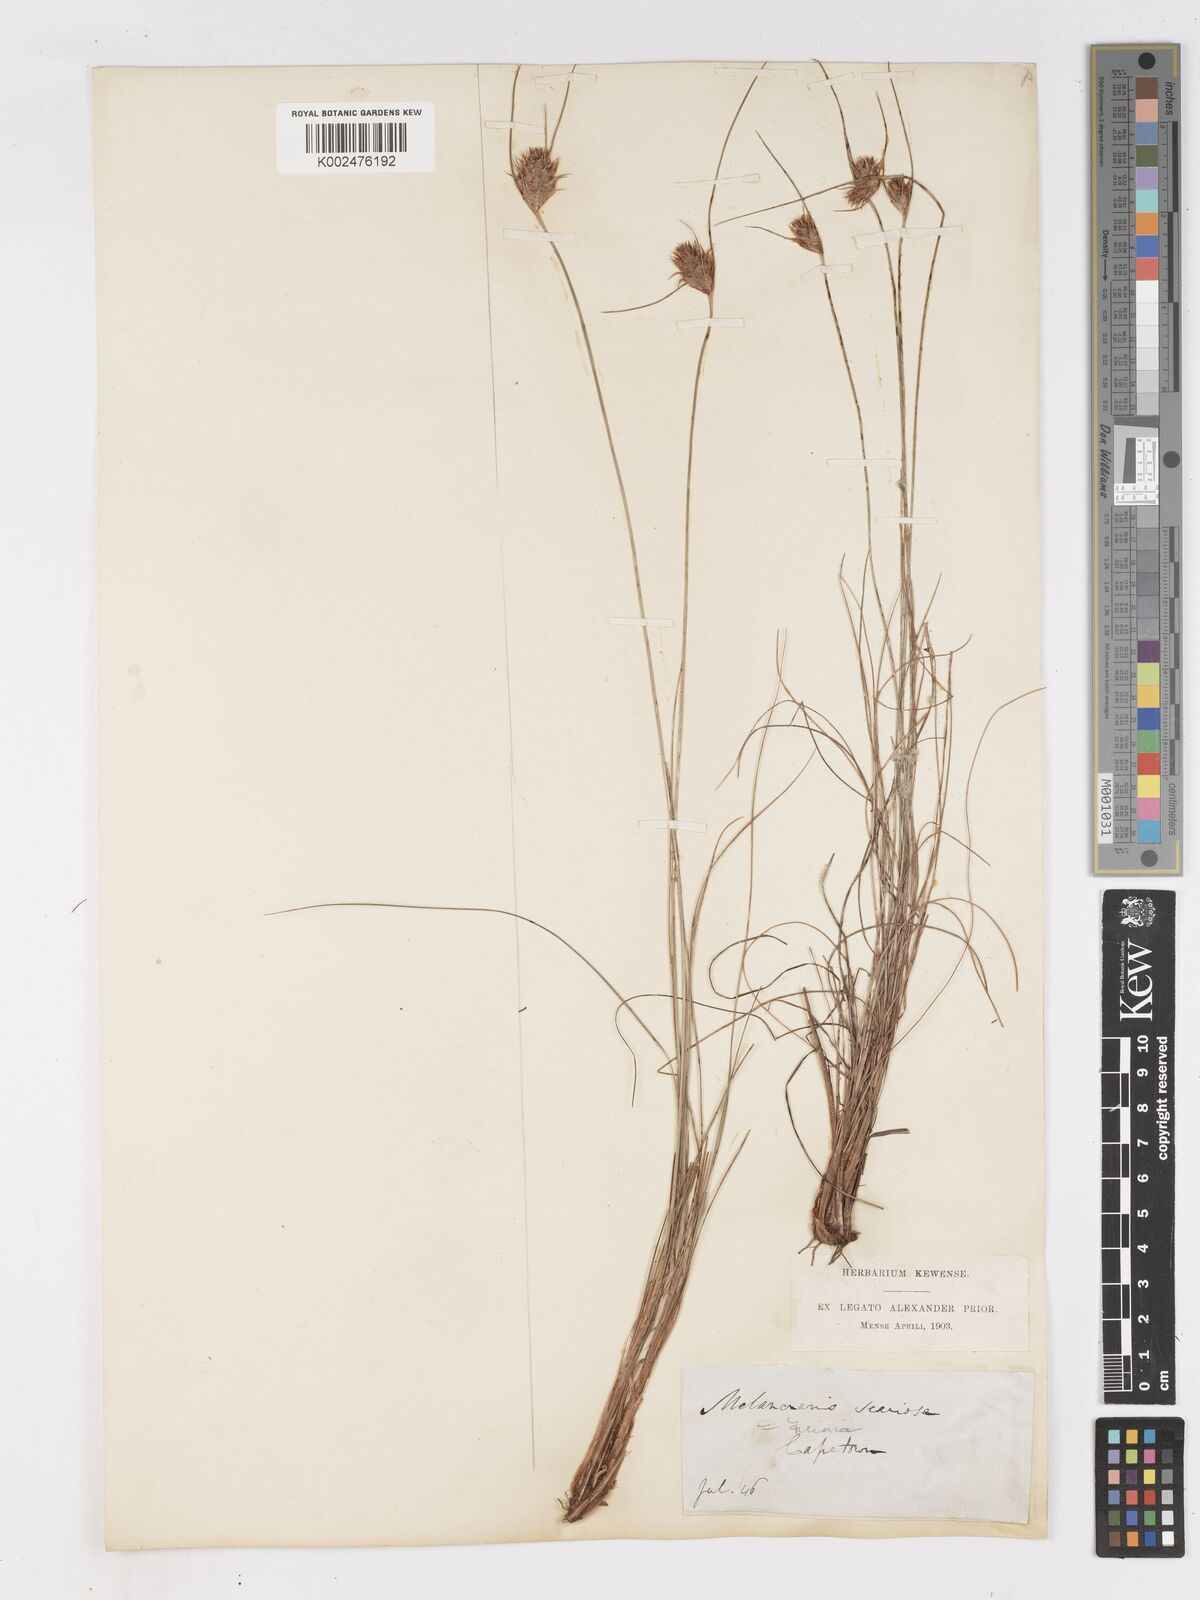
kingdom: Plantae
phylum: Tracheophyta
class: Liliopsida
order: Poales
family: Cyperaceae
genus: Ficinia
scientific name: Ficinia nigrescens
